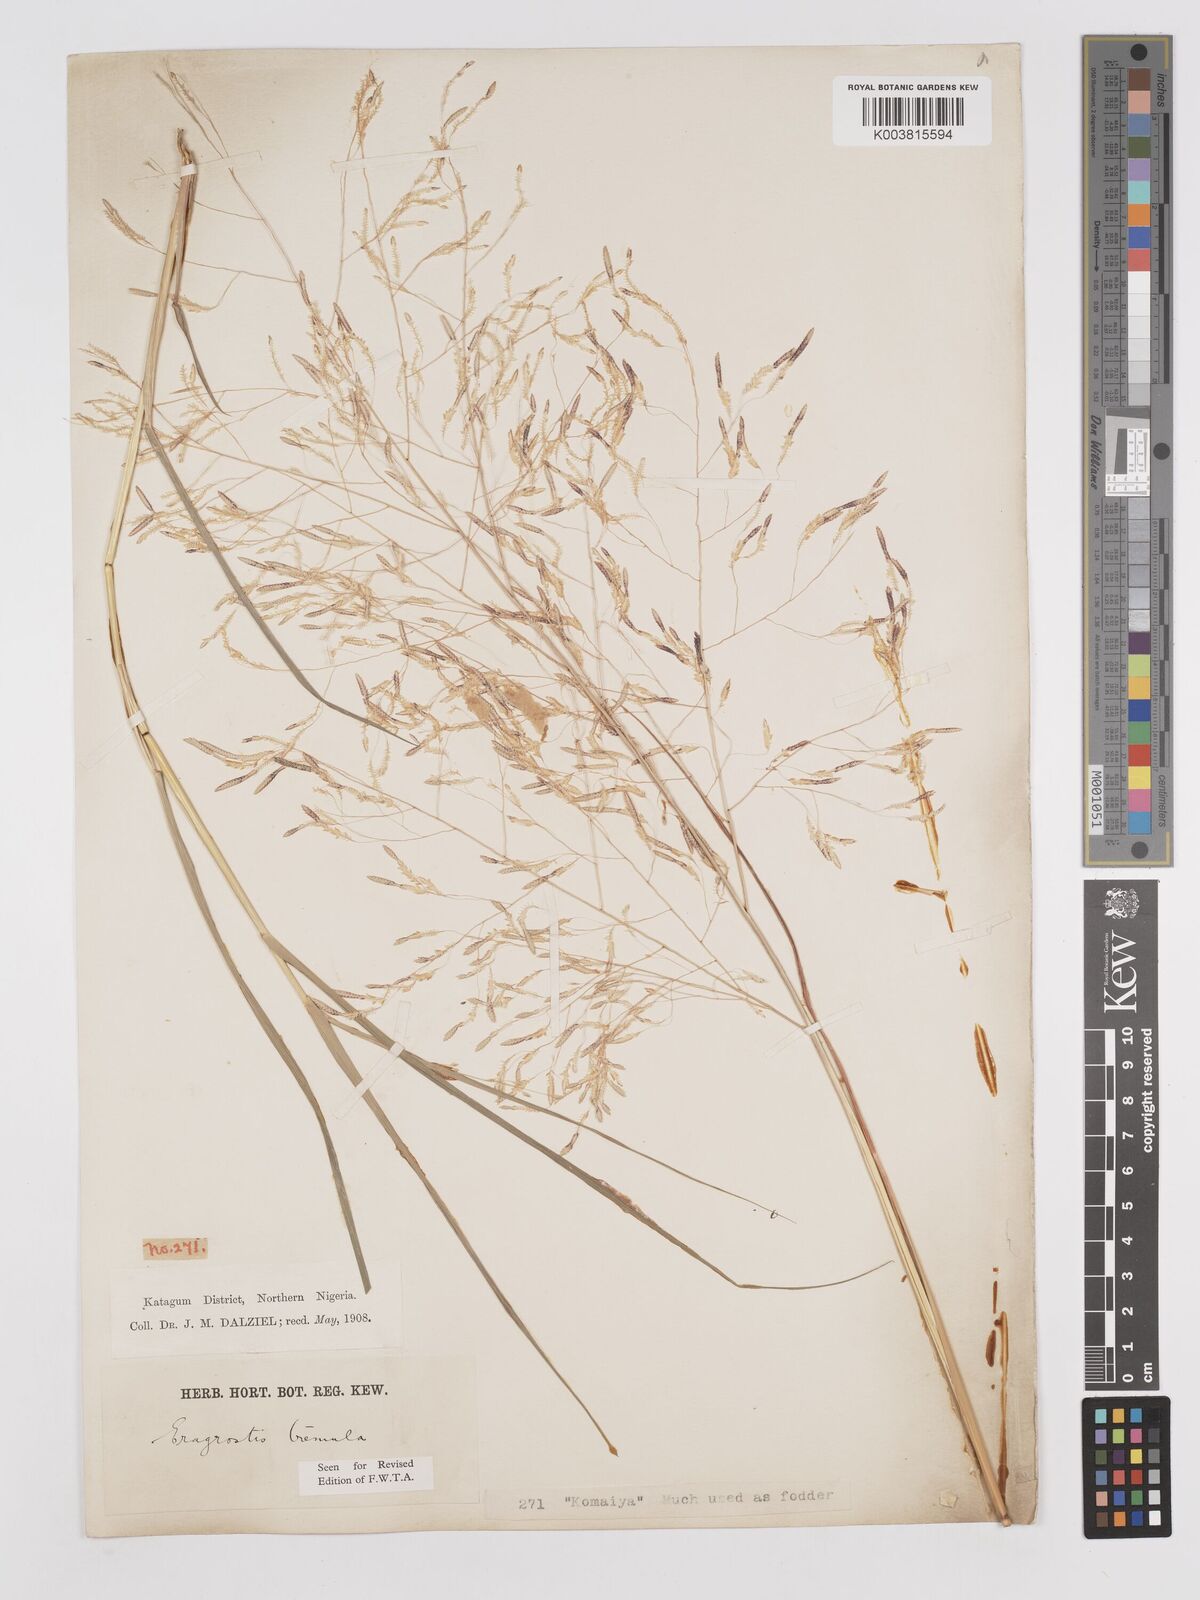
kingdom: Plantae
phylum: Tracheophyta
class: Liliopsida
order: Poales
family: Poaceae
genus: Eragrostis
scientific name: Eragrostis tremula
